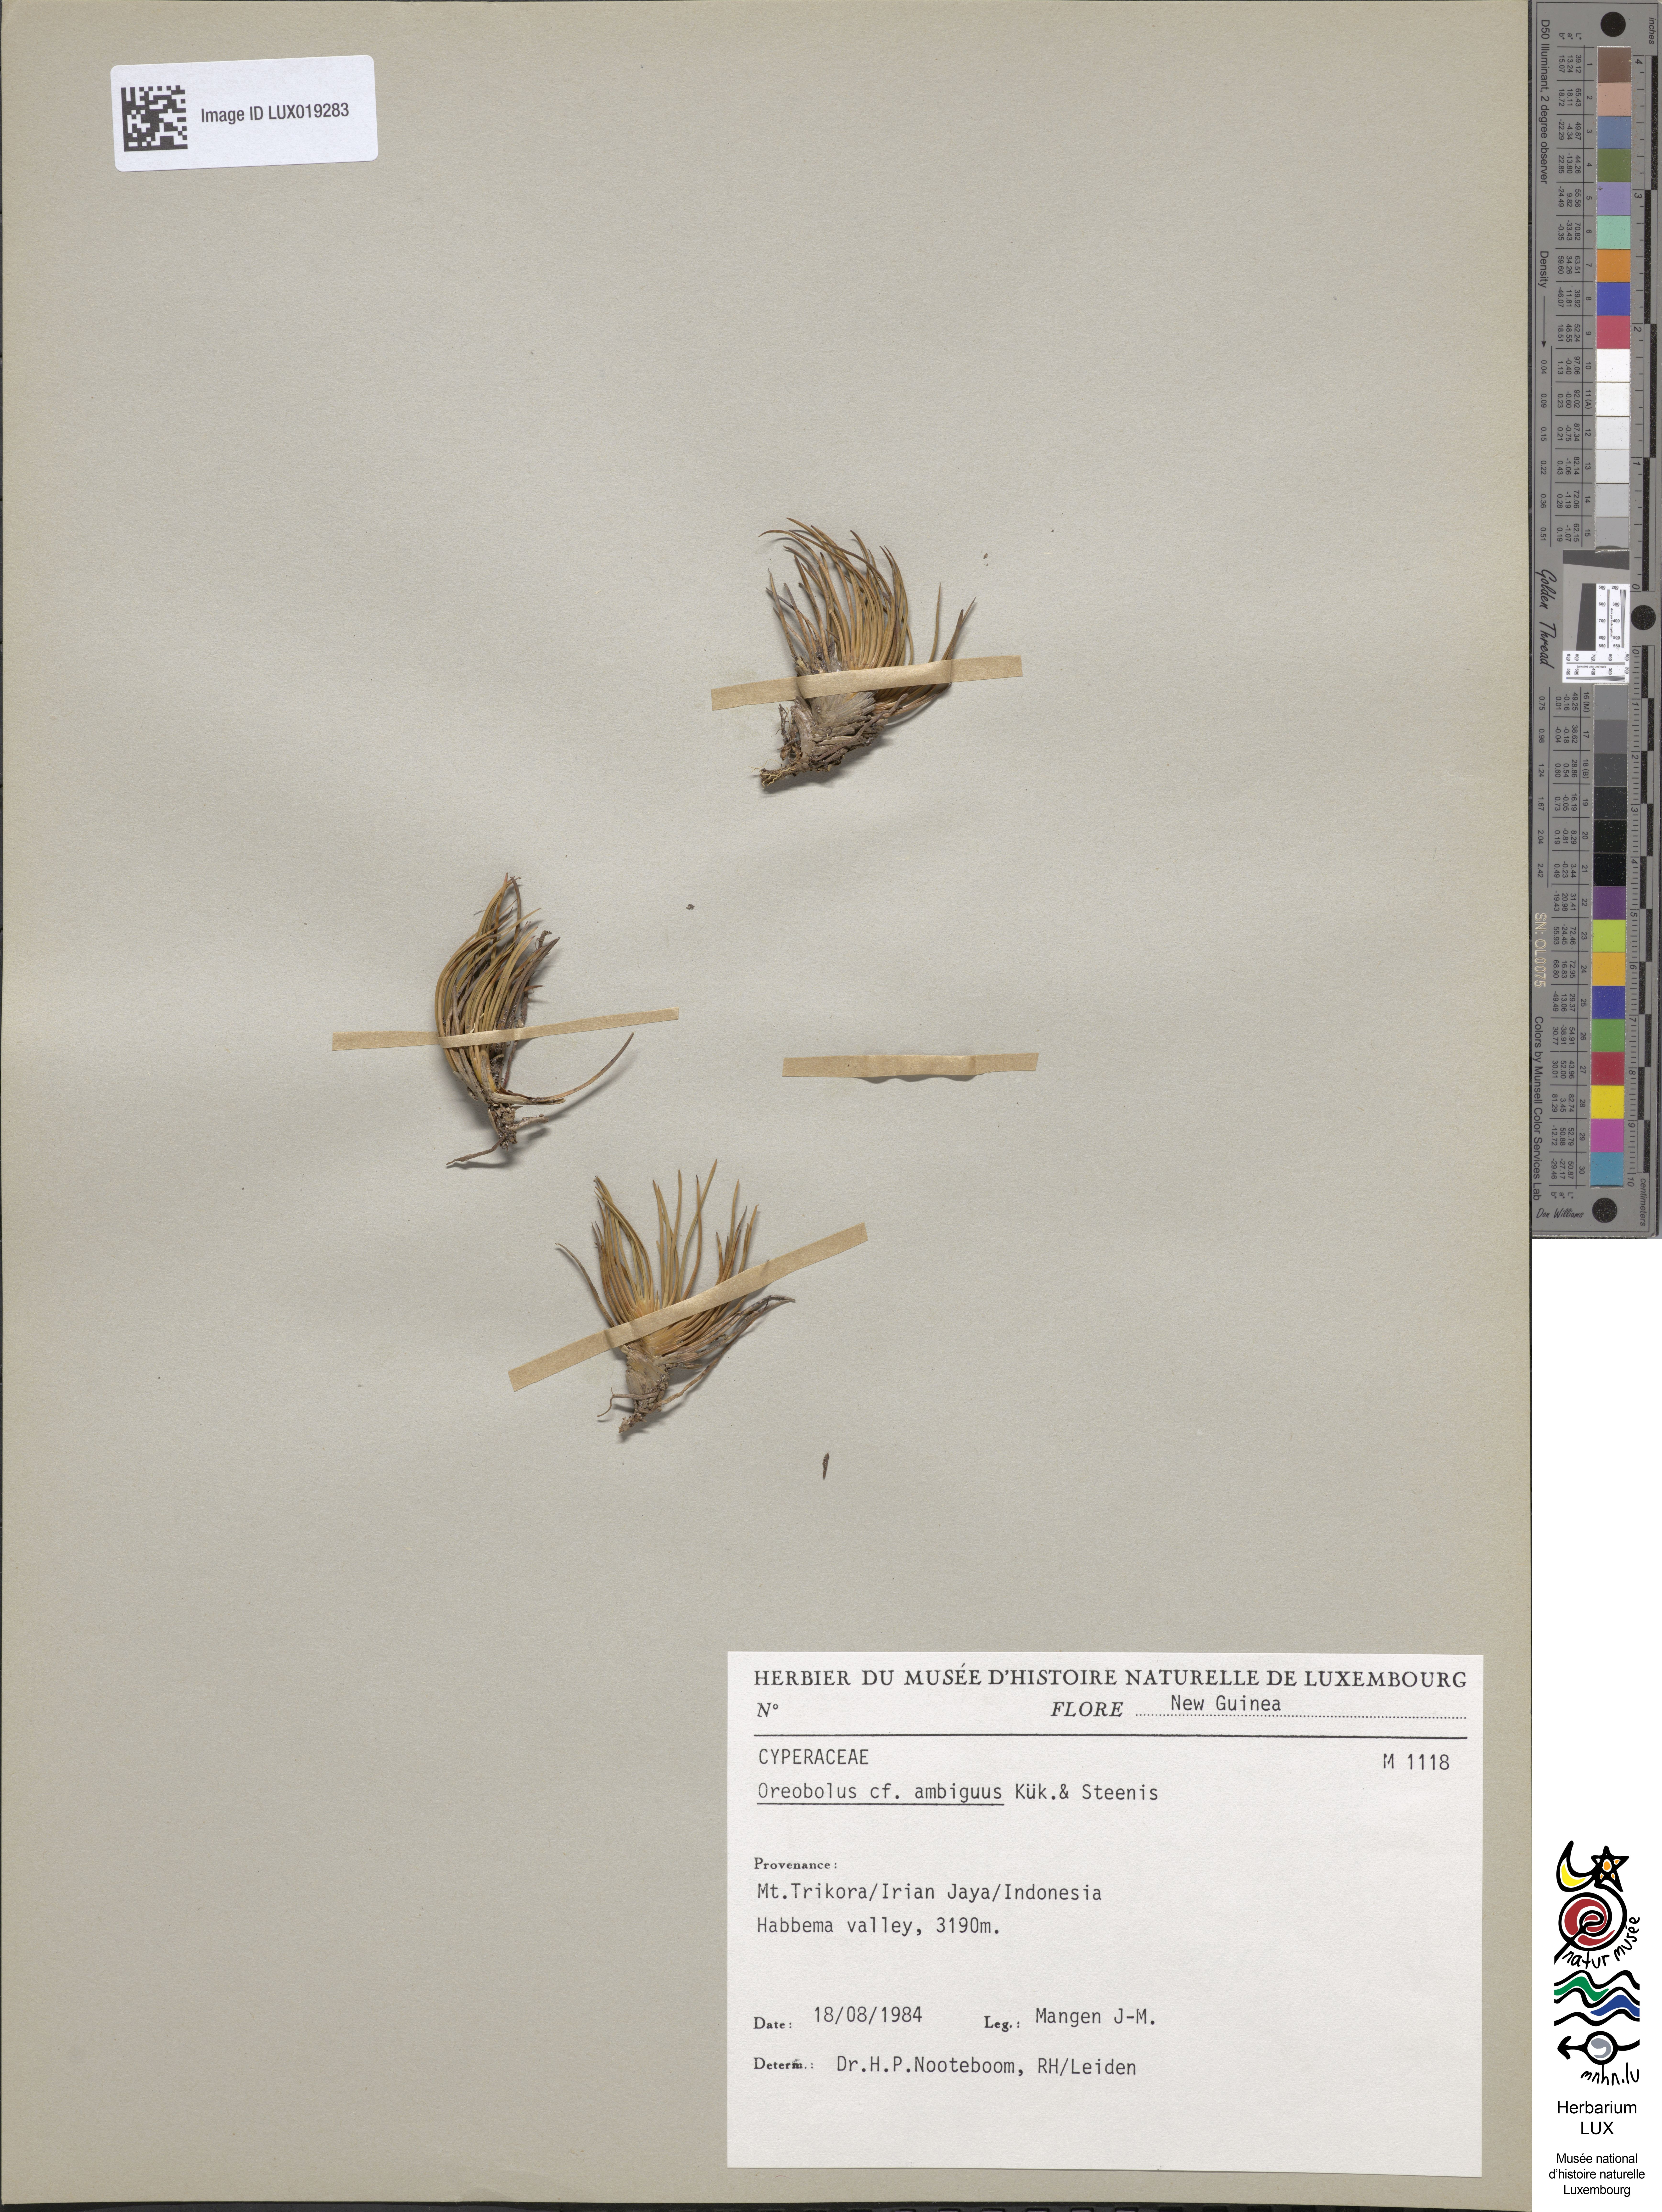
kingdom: Plantae
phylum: Tracheophyta
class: Liliopsida
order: Poales
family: Cyperaceae
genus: Oreobolus
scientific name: Oreobolus ambiguus
